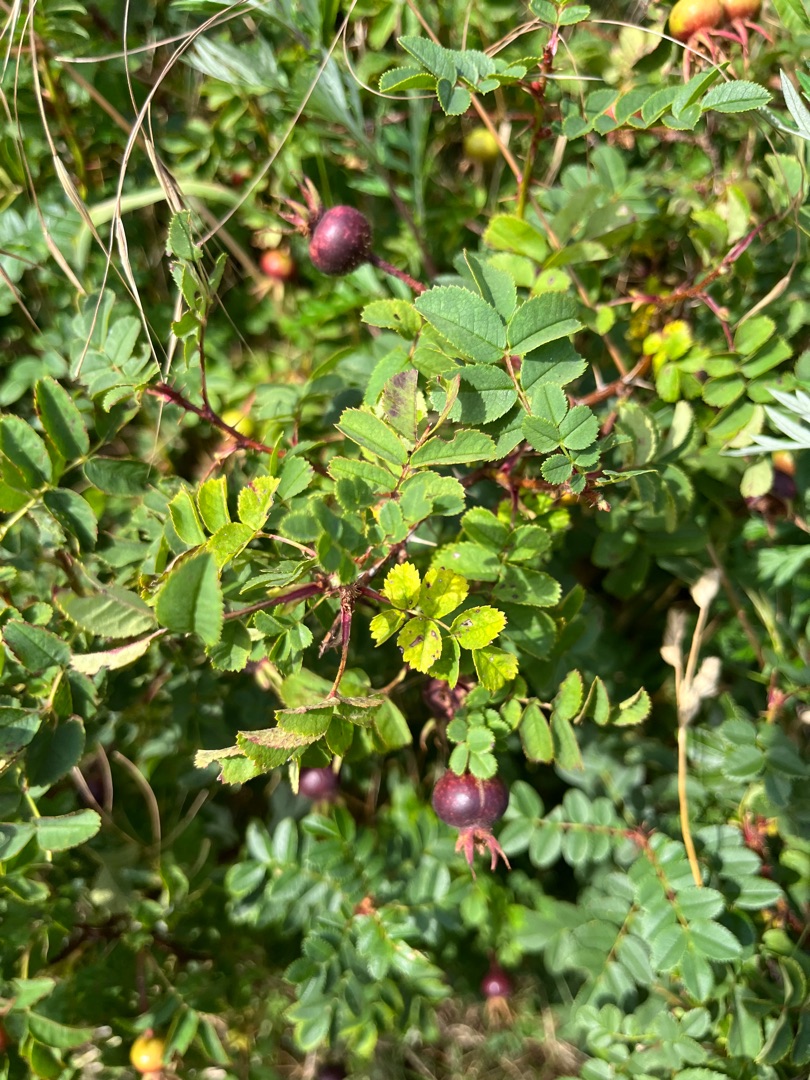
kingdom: Plantae
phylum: Tracheophyta
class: Magnoliopsida
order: Rosales
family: Rosaceae
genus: Rosa
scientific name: Rosa spinosissima
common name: Klit-rose
